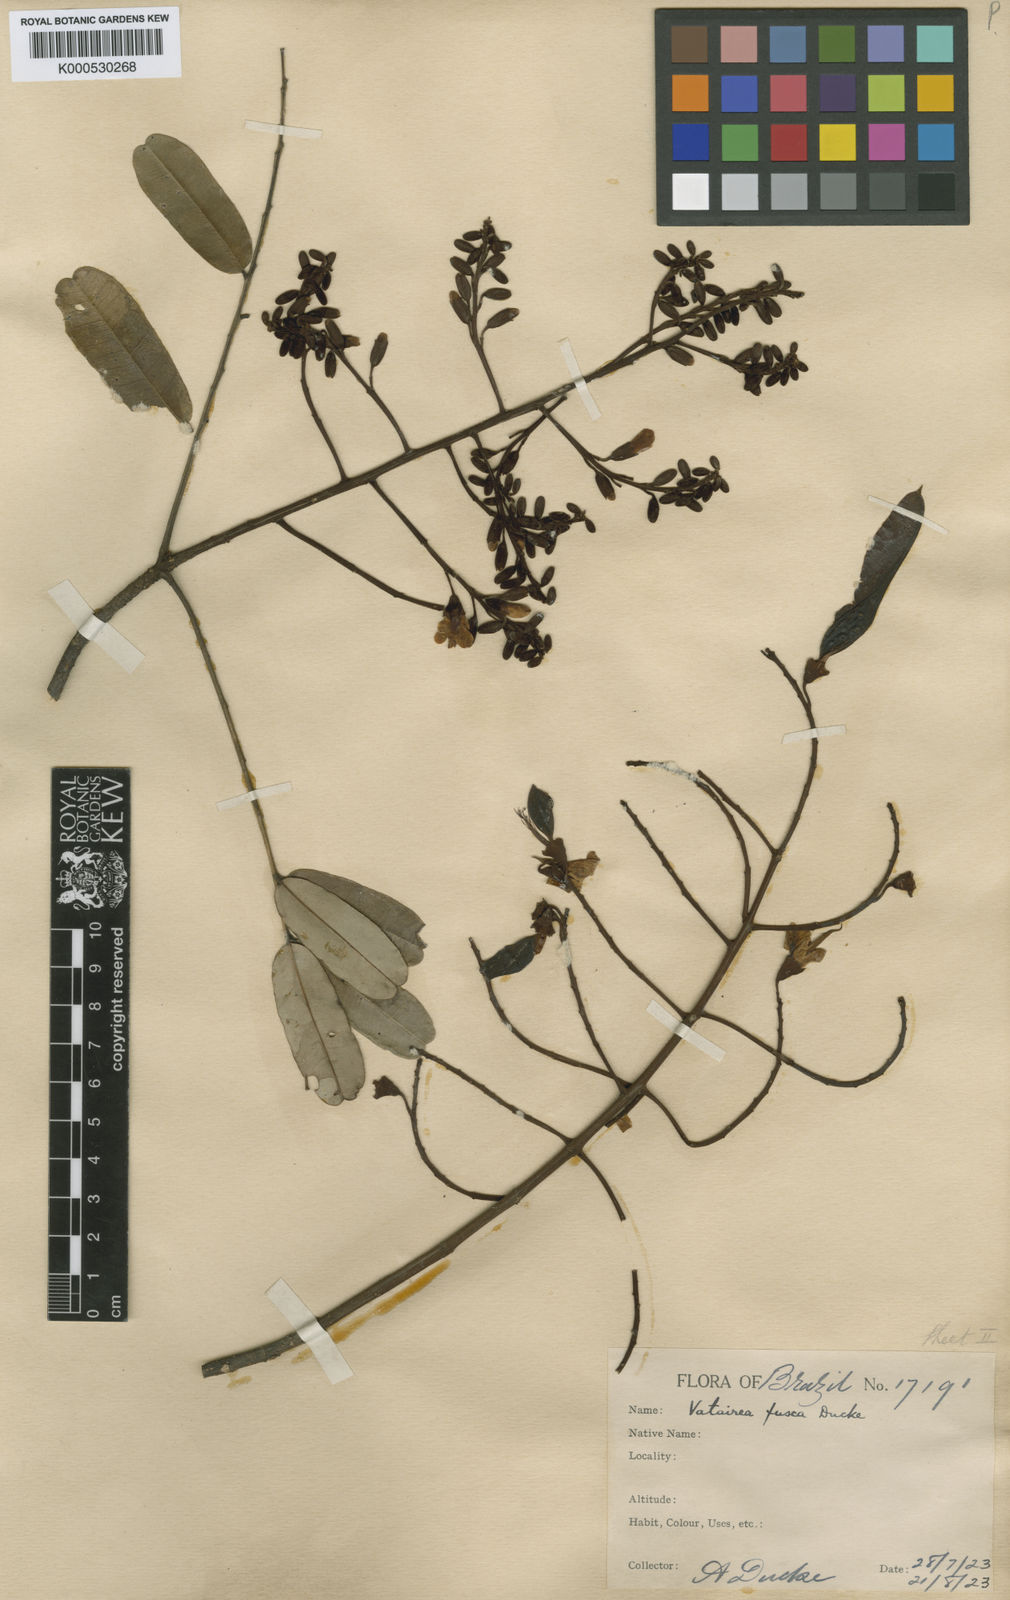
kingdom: Plantae
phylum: Tracheophyta
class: Magnoliopsida
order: Fabales
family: Fabaceae
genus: Vatairea
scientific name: Vatairea fusca
